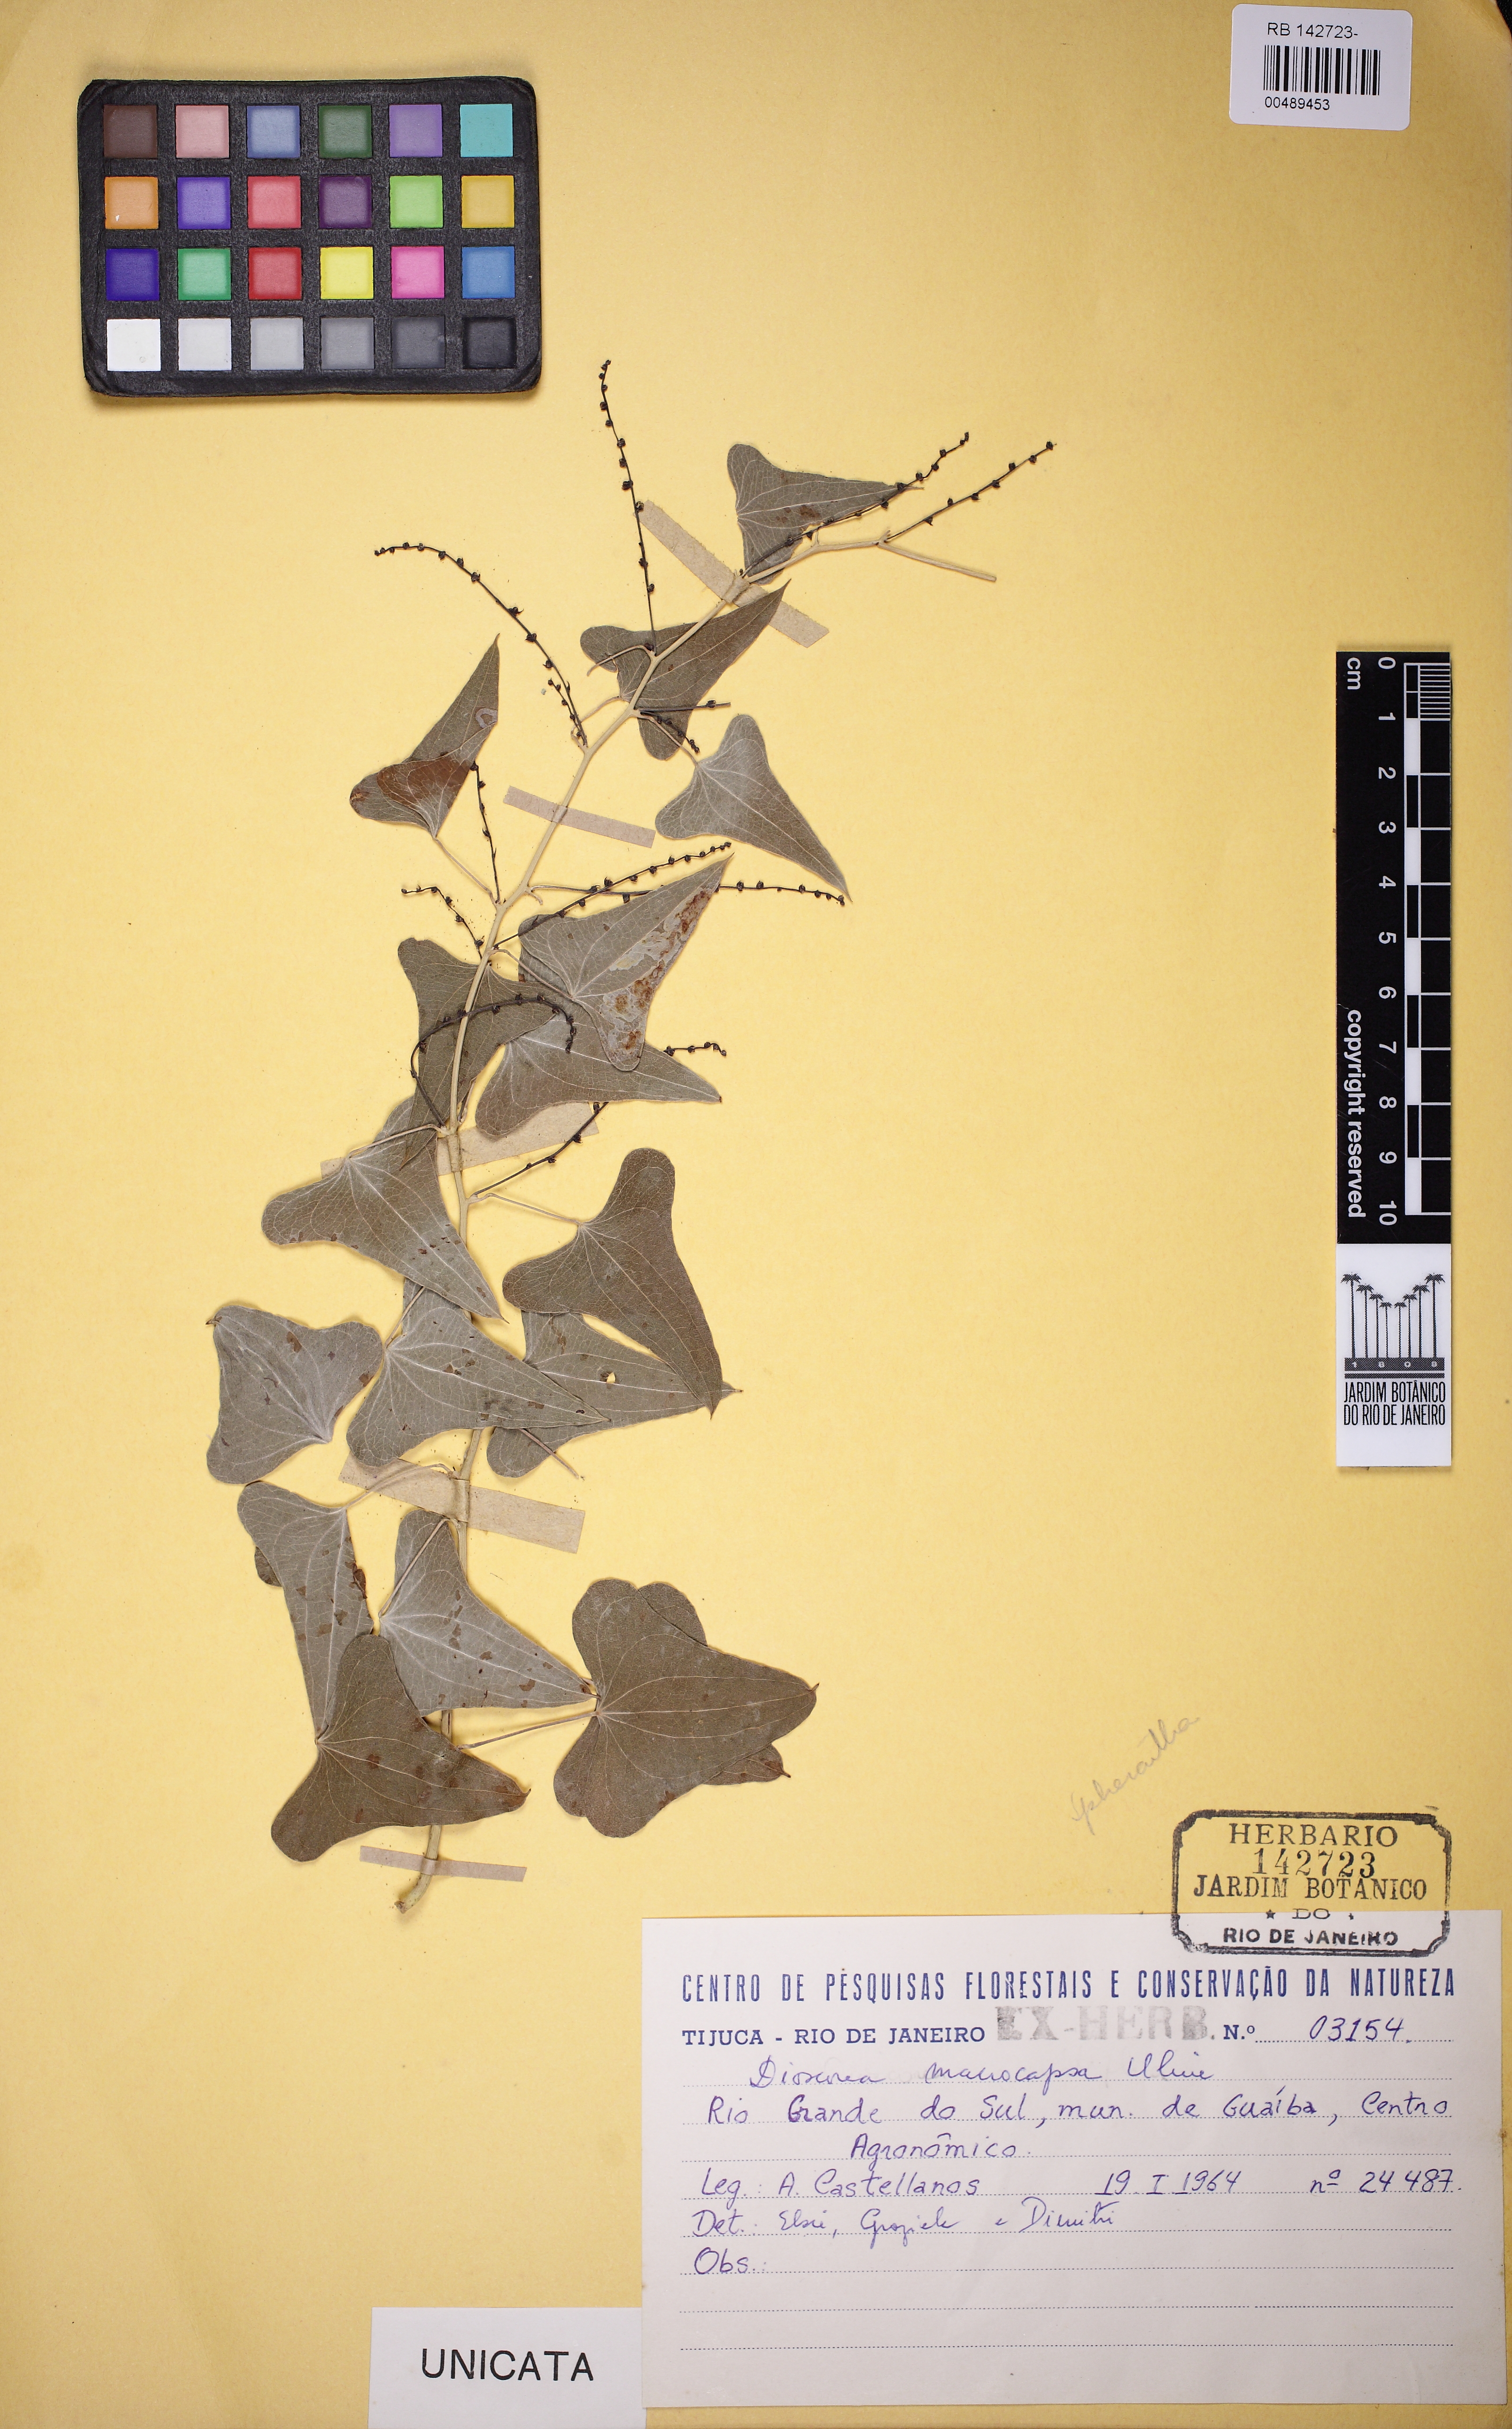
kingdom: Plantae
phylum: Tracheophyta
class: Liliopsida
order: Dioscoreales
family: Dioscoreaceae
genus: Dioscorea
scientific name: Dioscorea multiflora
